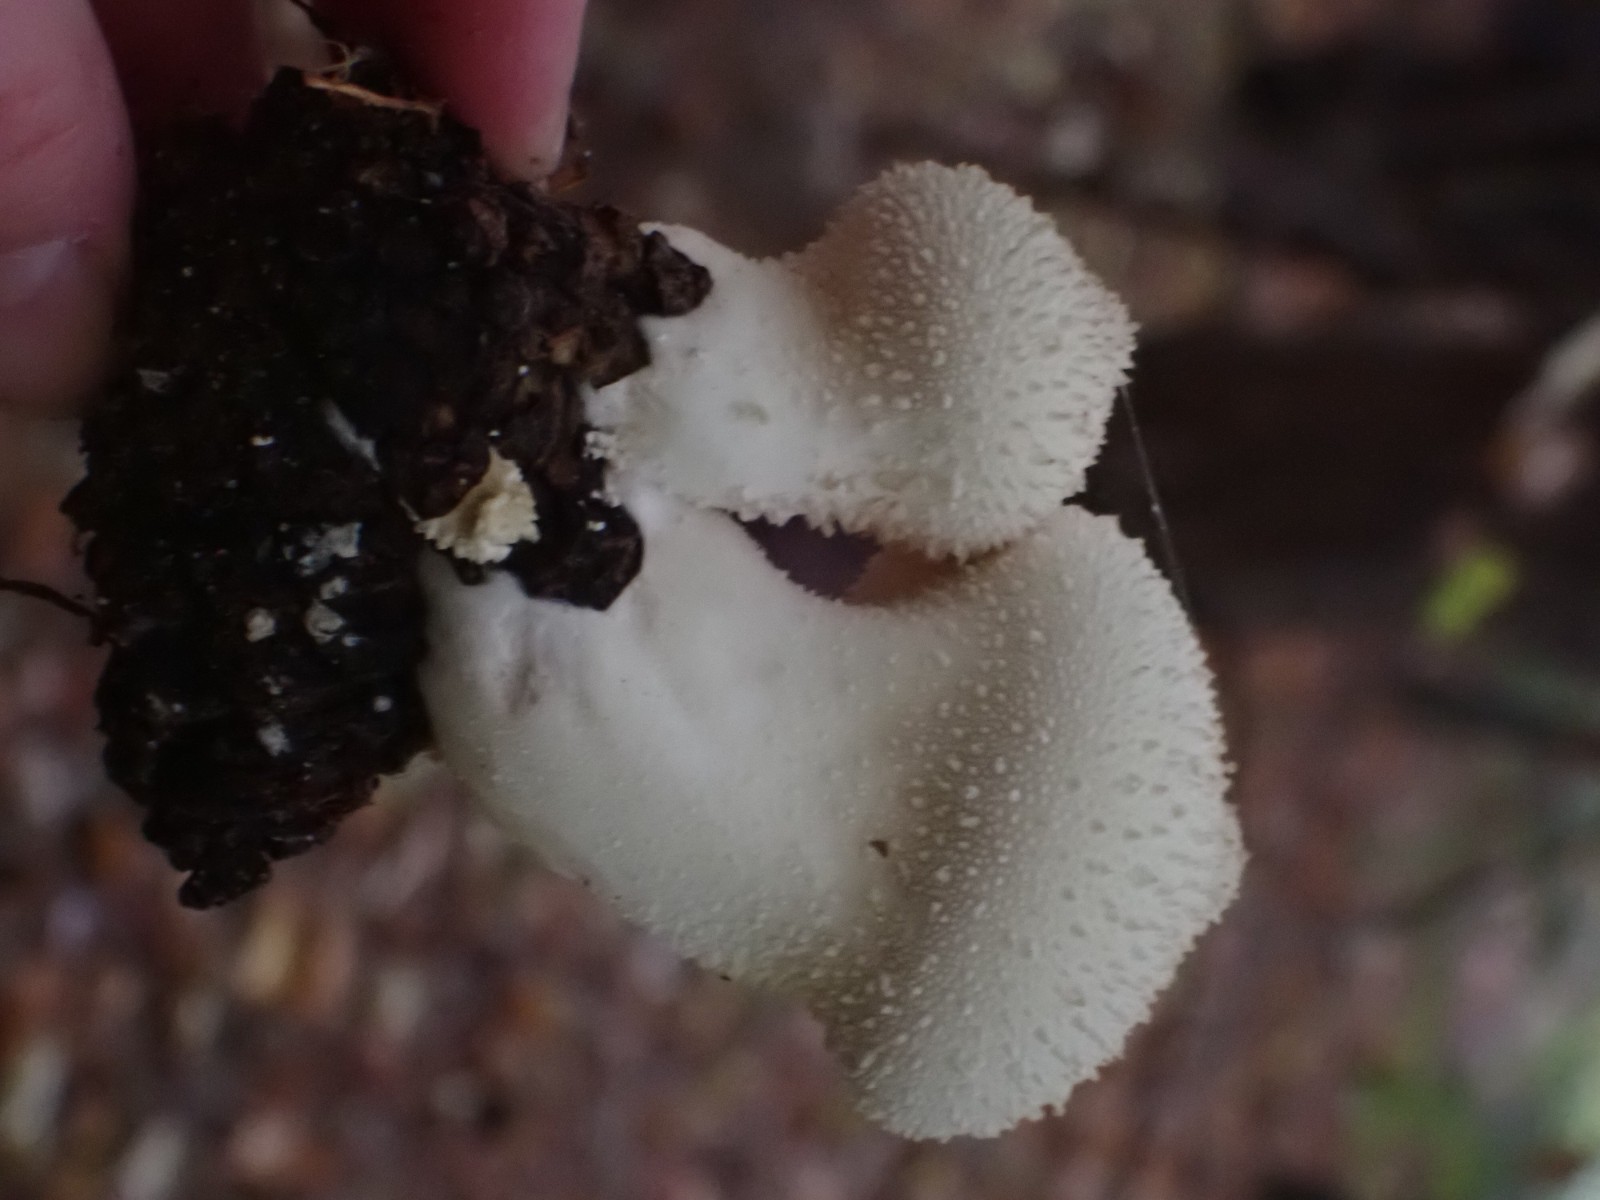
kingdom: Fungi
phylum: Basidiomycota
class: Agaricomycetes
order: Agaricales
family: Lycoperdaceae
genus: Lycoperdon
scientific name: Lycoperdon perlatum
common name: krystal-støvbold
